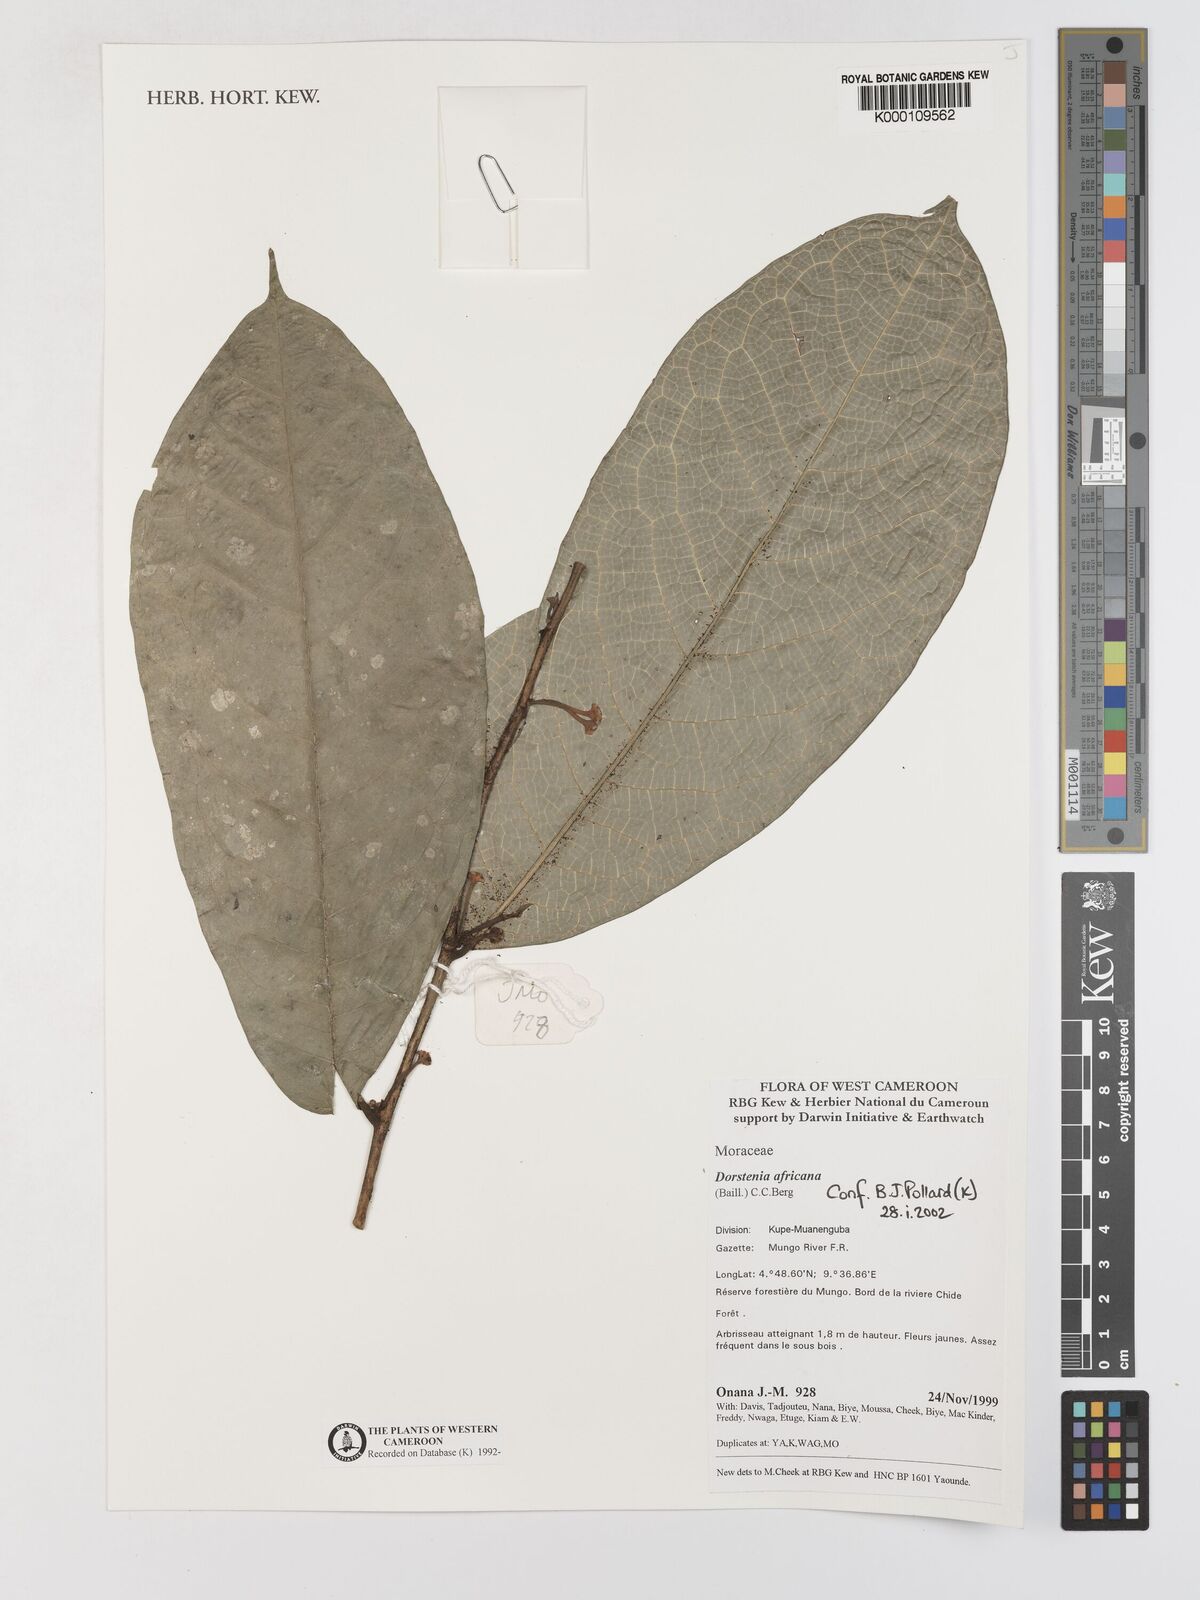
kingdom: Plantae
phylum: Tracheophyta
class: Magnoliopsida
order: Rosales
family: Moraceae
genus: Dorstenia
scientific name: Dorstenia africana
